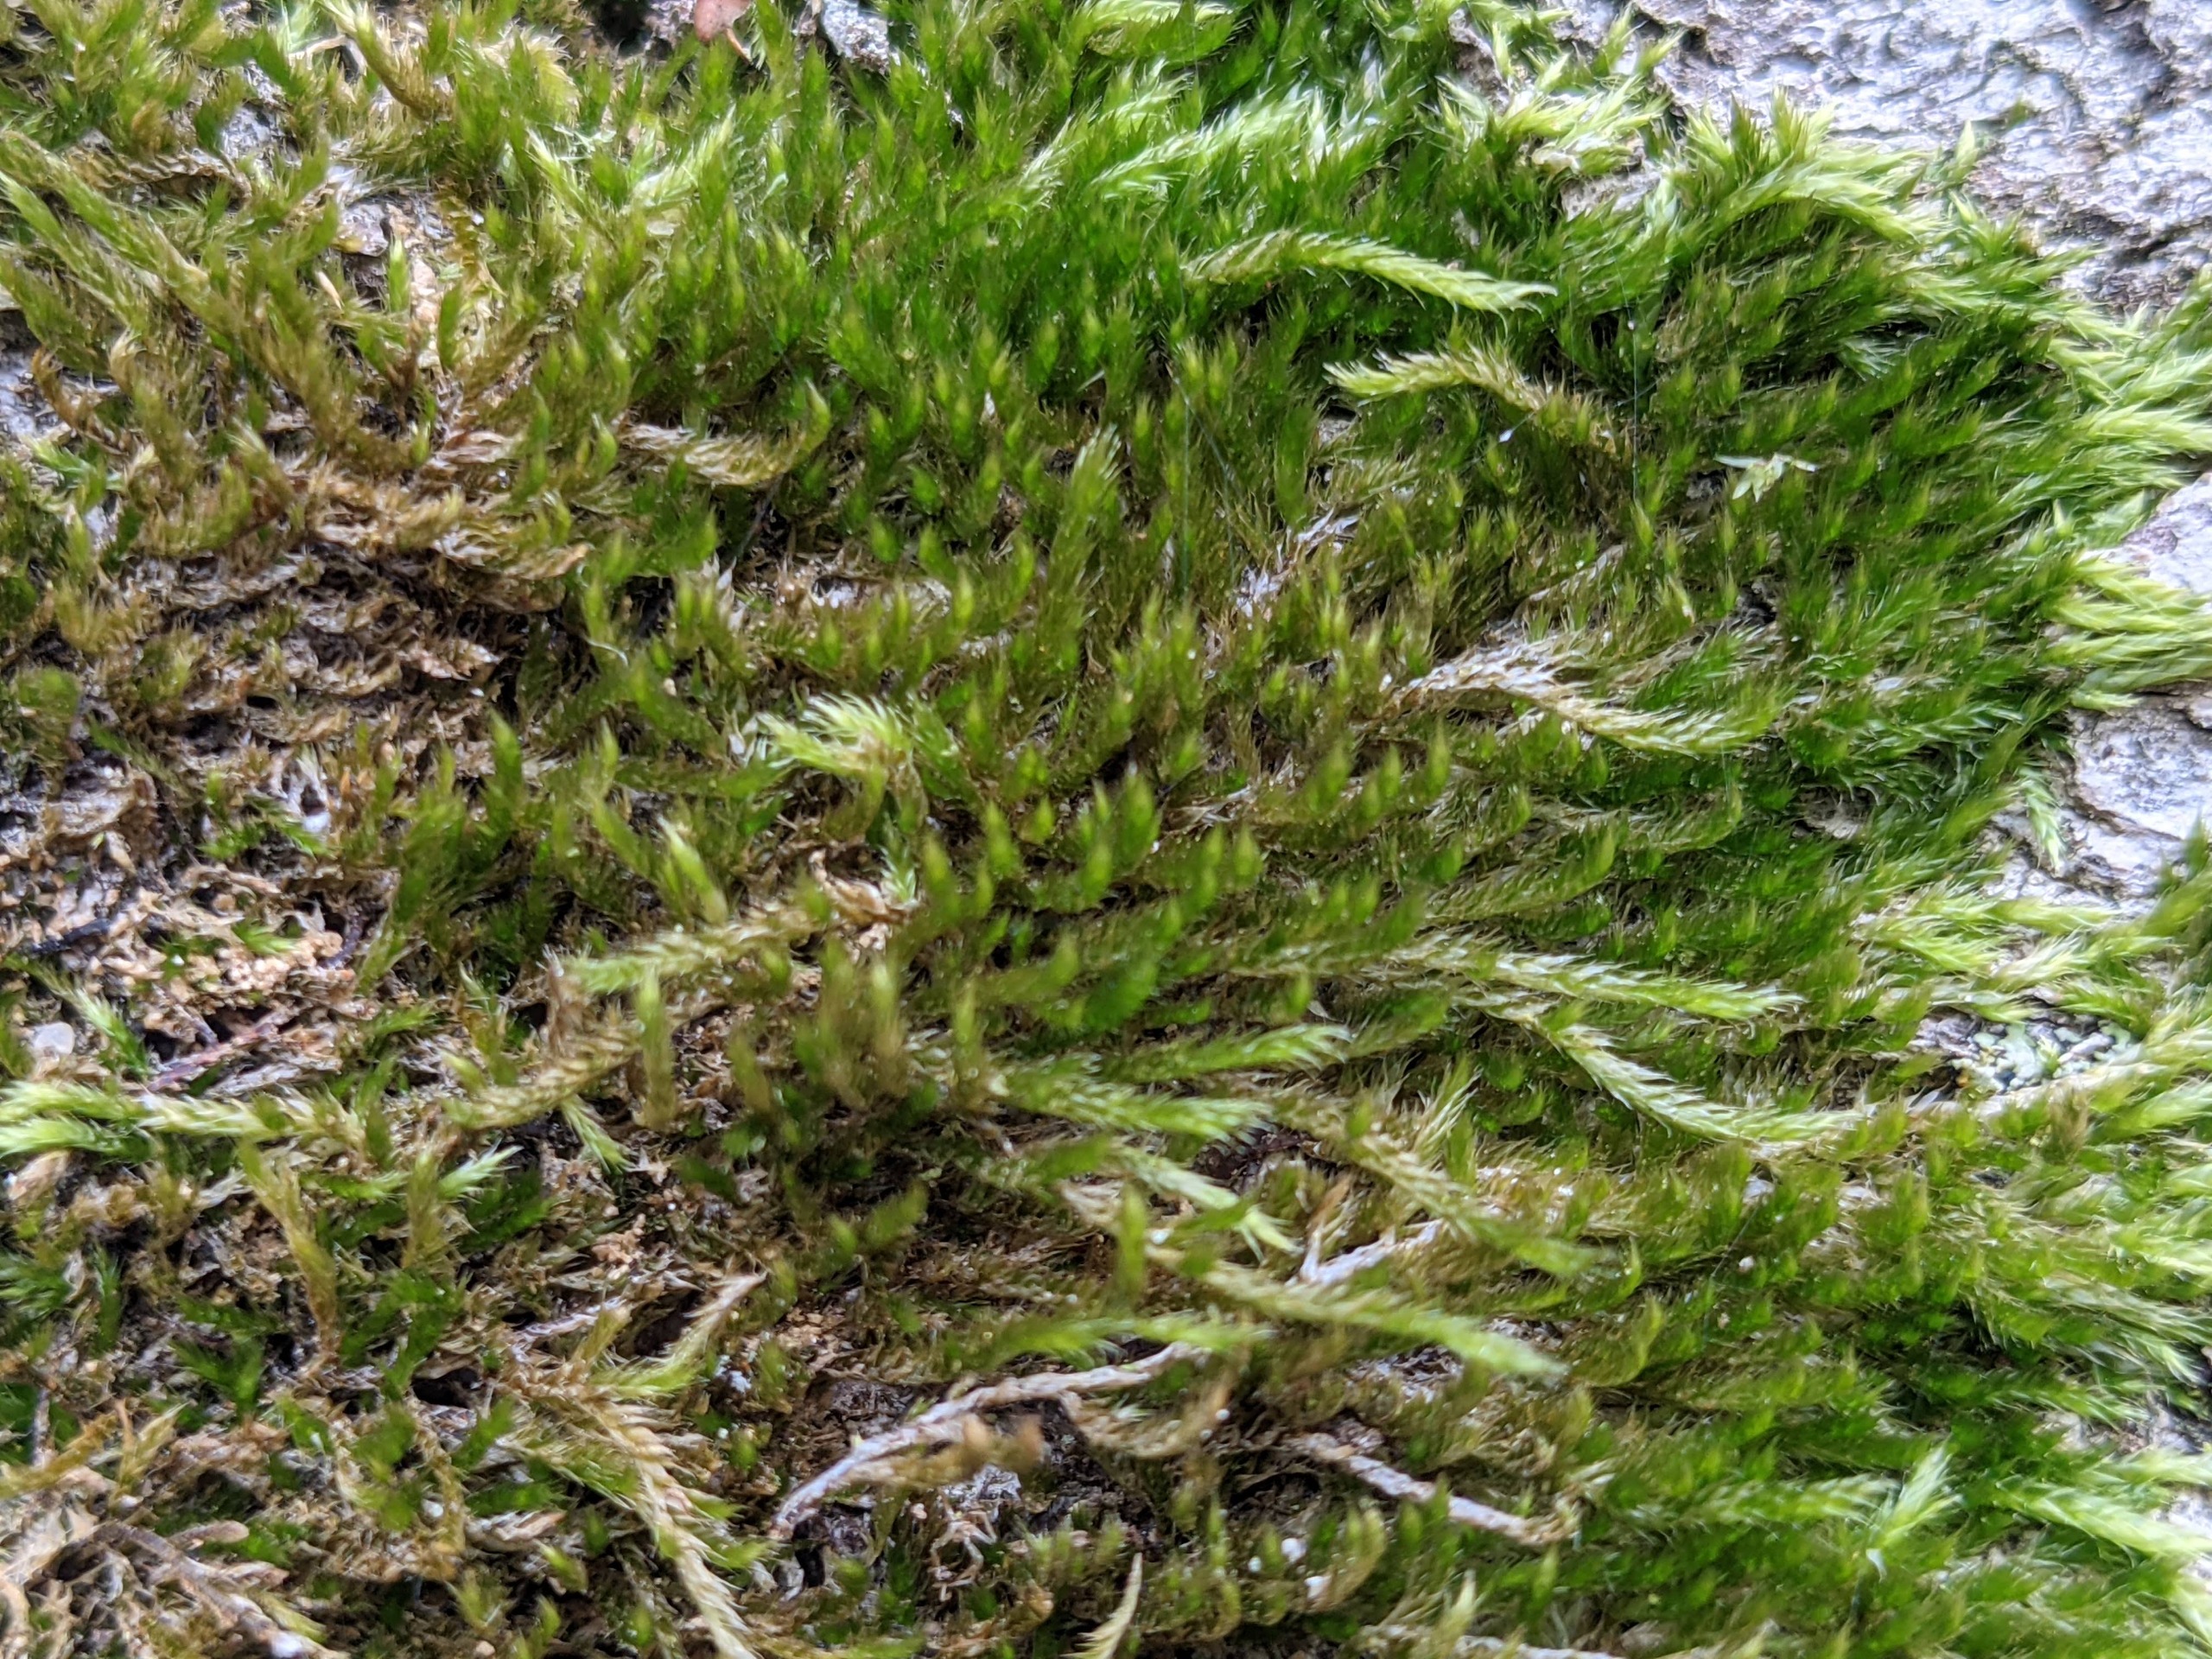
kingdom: Plantae
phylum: Bryophyta
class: Bryopsida
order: Hypnales
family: Hypnaceae
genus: Hypnum
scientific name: Hypnum resupinatum
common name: Ret cypresmos
